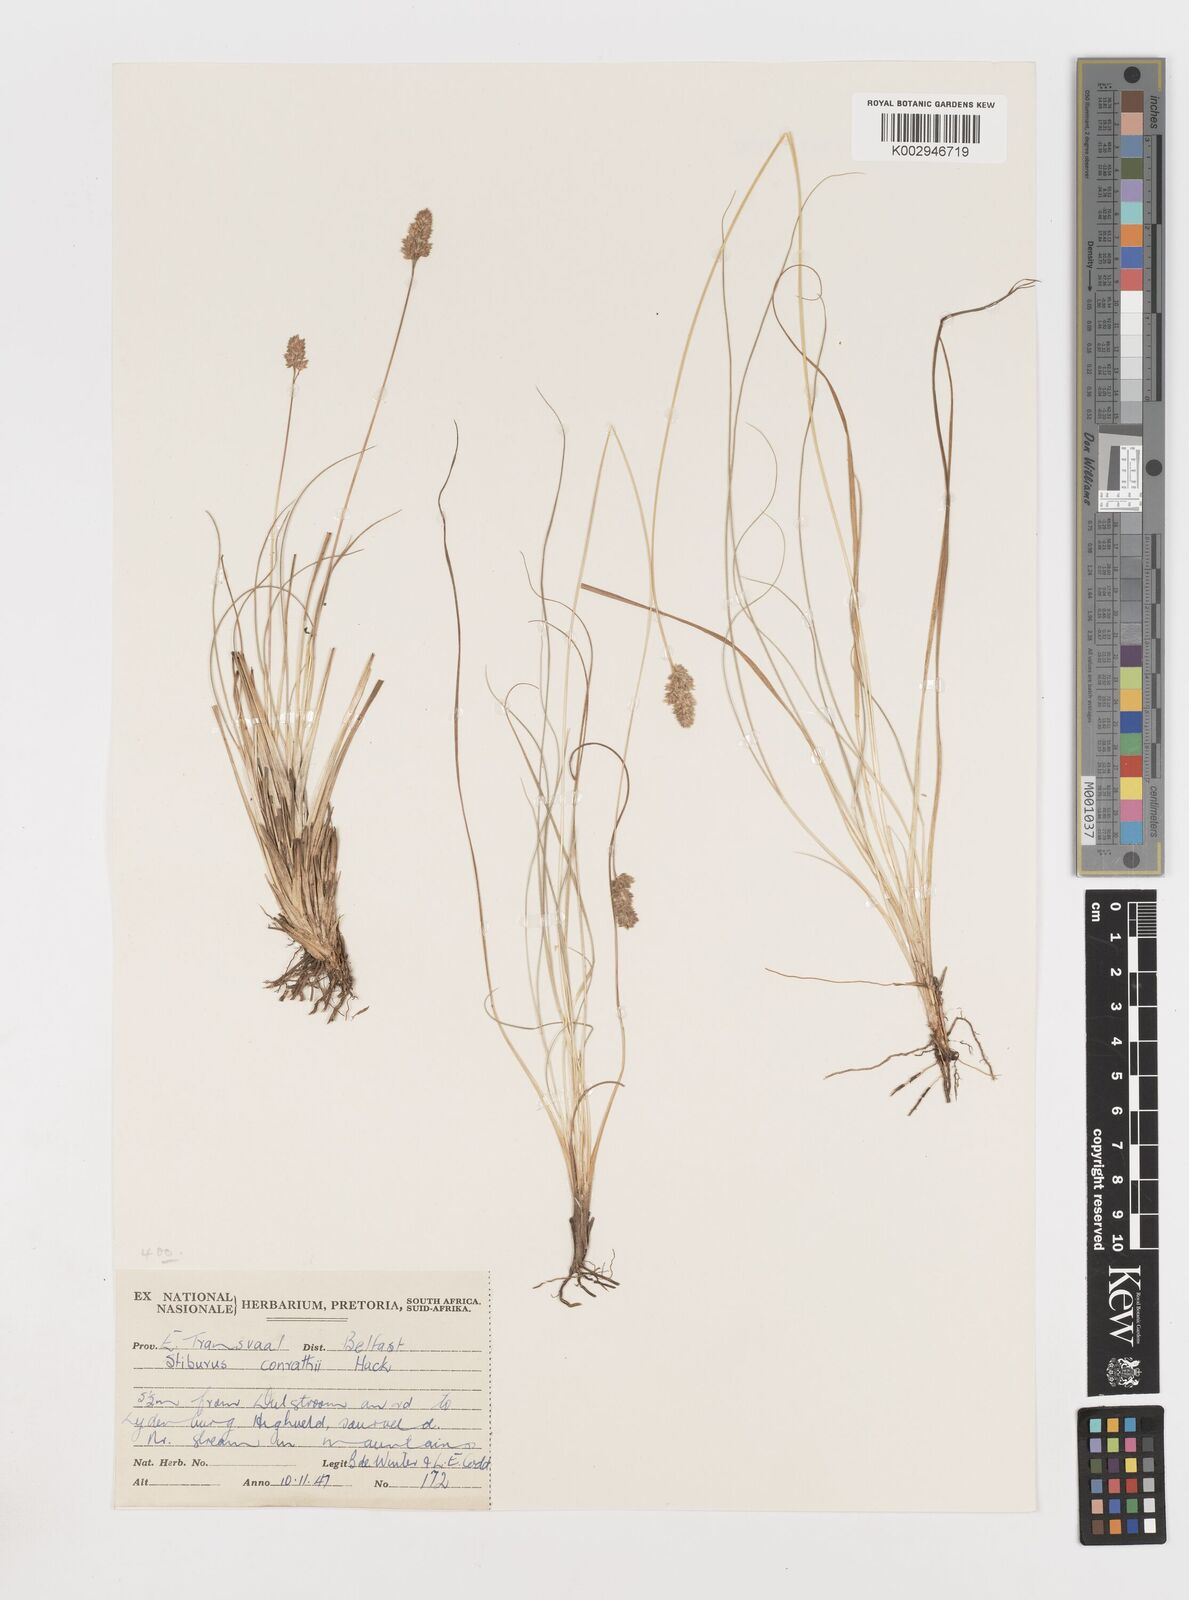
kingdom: Plantae
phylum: Tracheophyta
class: Liliopsida
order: Poales
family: Poaceae
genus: Stiburus
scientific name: Stiburus conrathii
